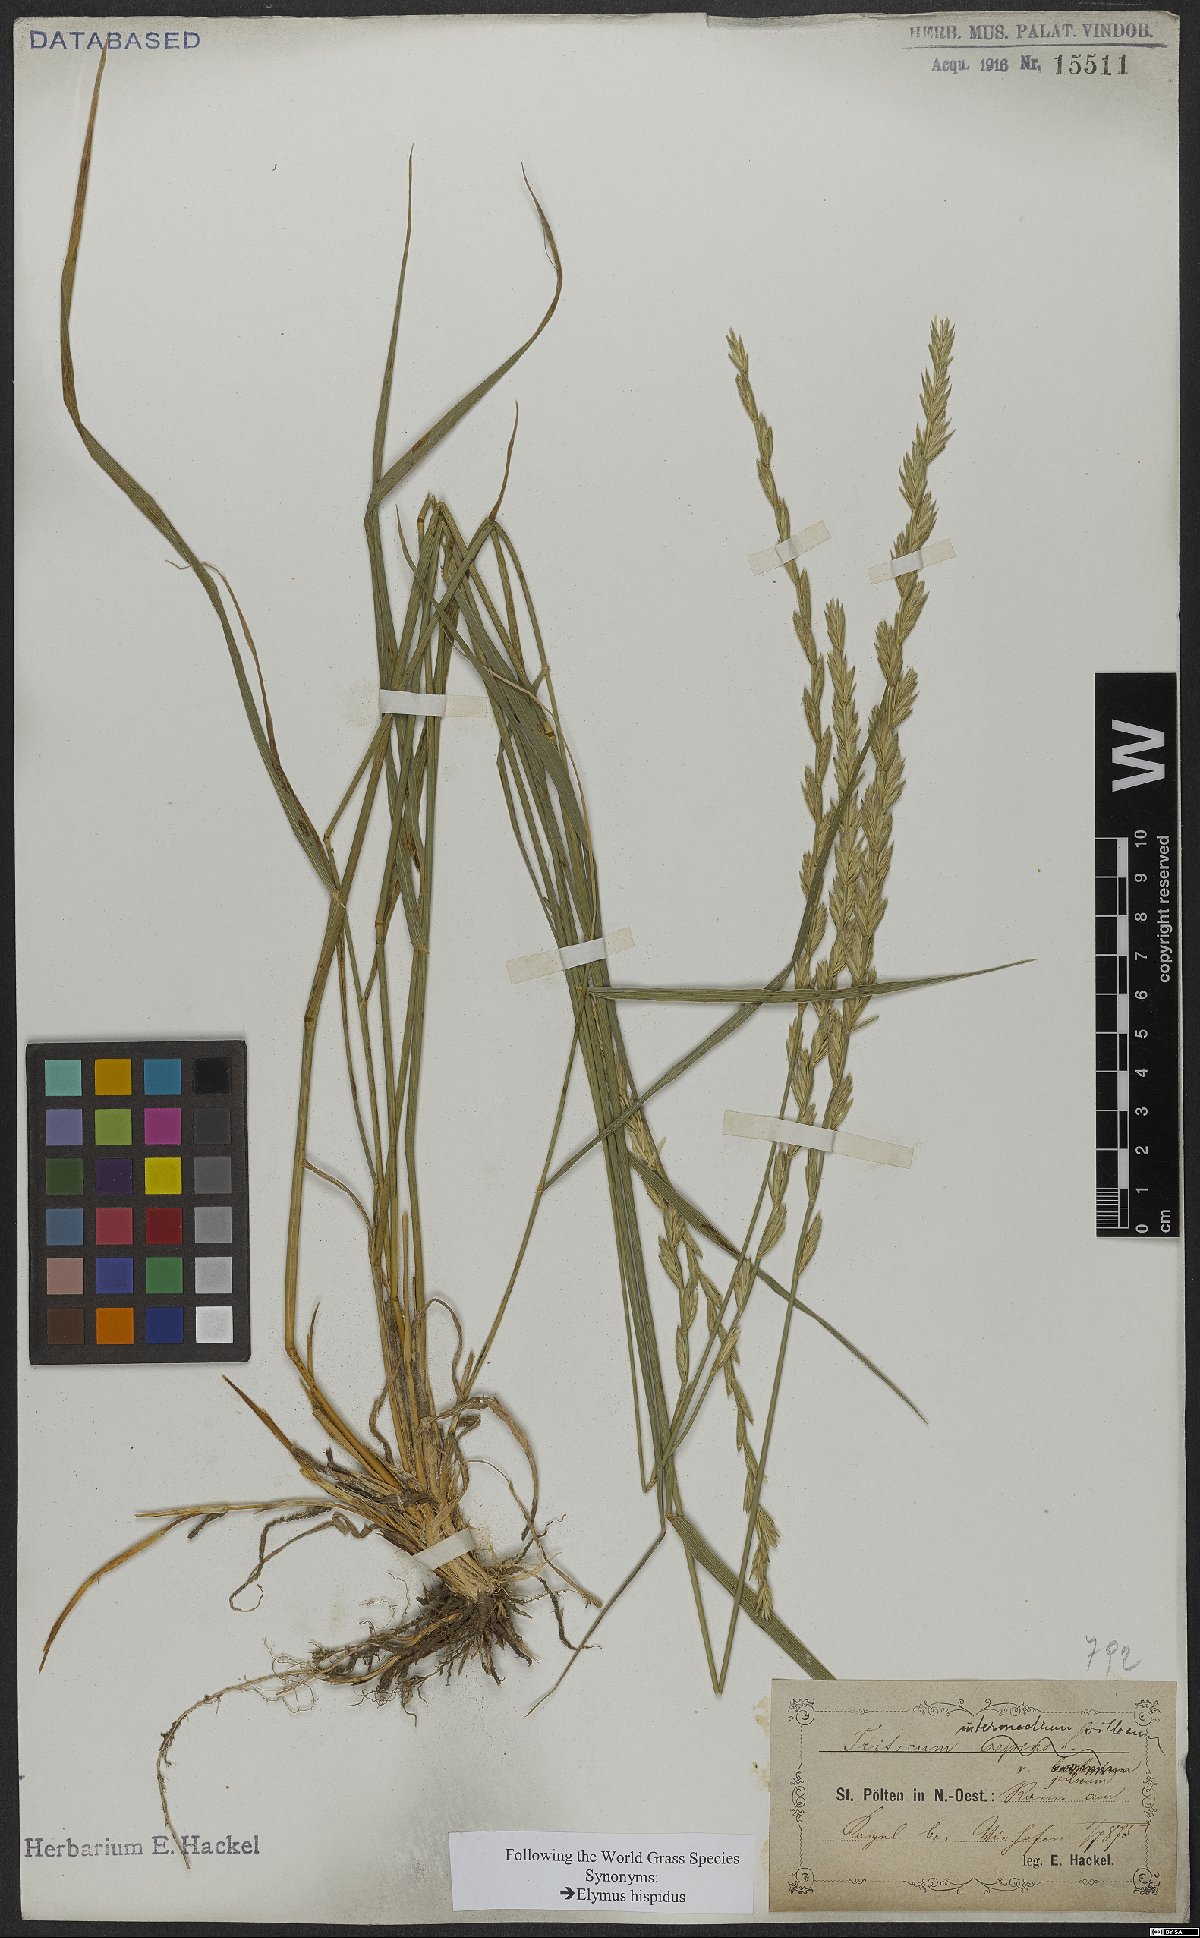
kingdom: Plantae
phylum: Tracheophyta
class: Liliopsida
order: Poales
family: Poaceae
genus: Thinopyrum
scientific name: Thinopyrum intermedium
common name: Intermediate wheatgrass
